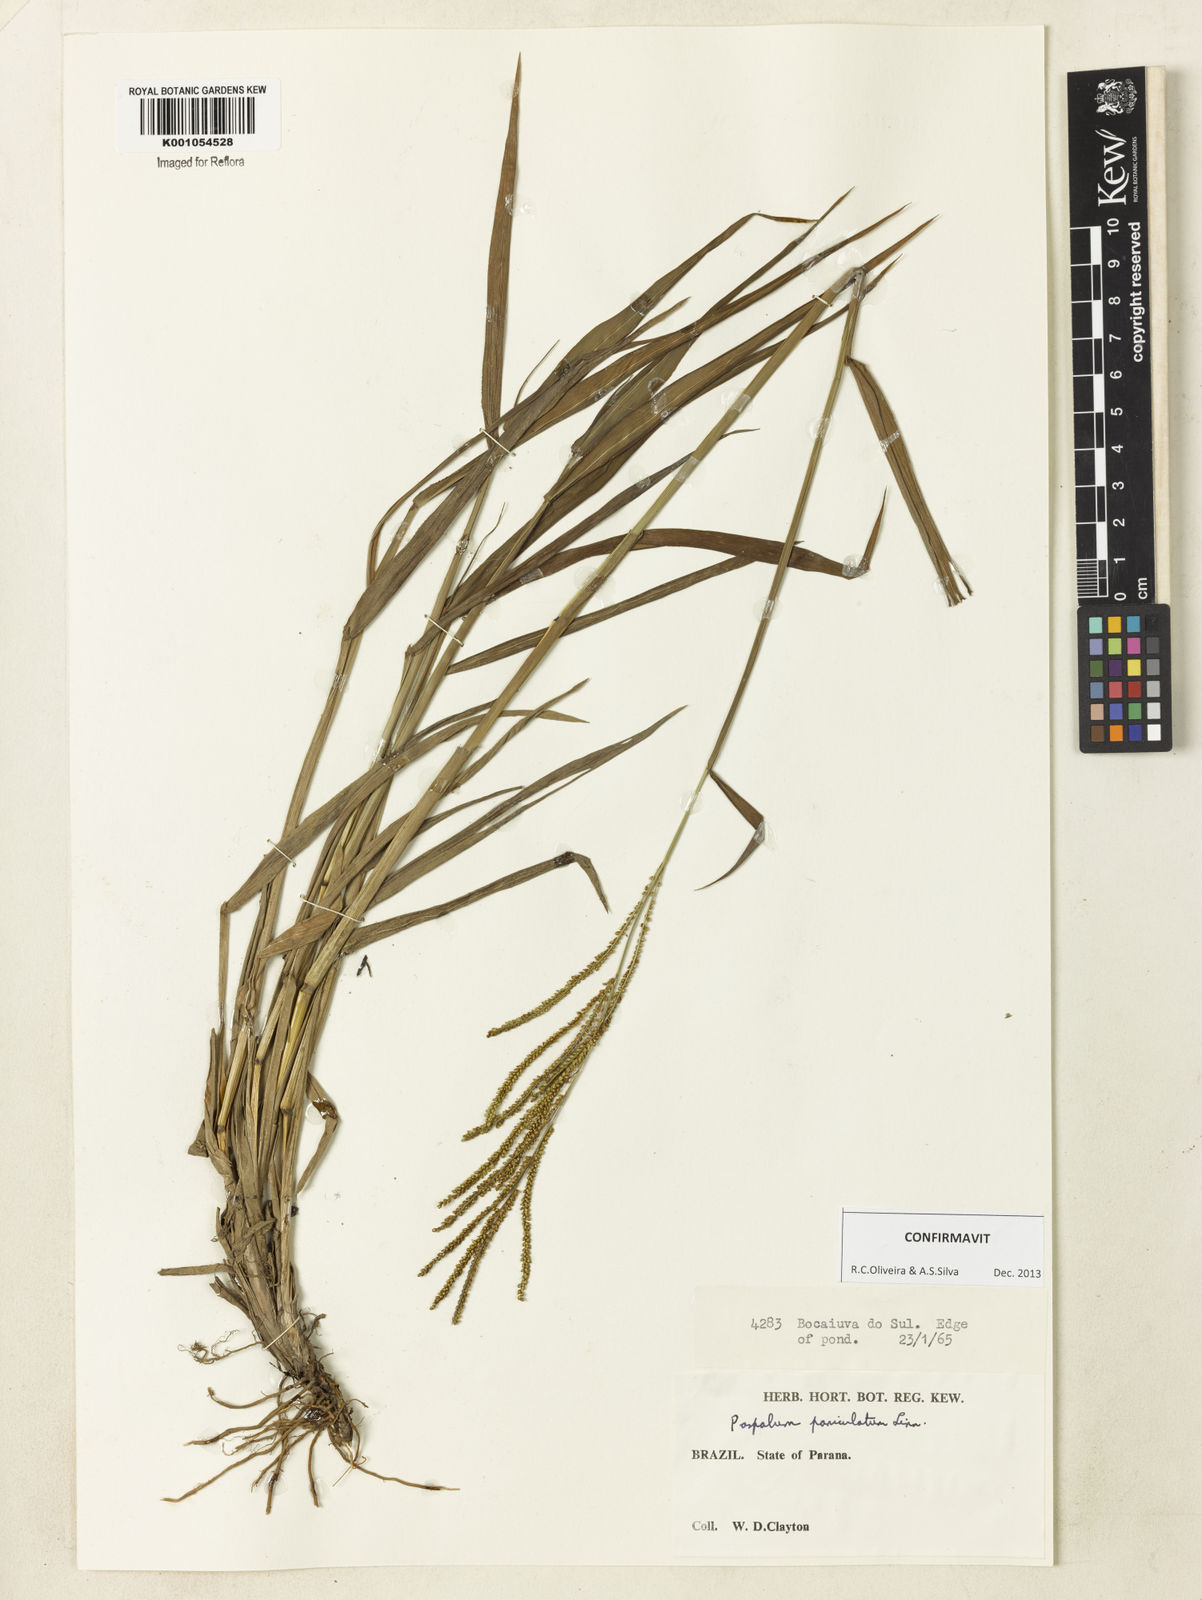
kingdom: Plantae
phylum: Tracheophyta
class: Liliopsida
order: Poales
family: Poaceae
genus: Paspalum
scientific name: Paspalum paniculatum
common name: Arrocillo
